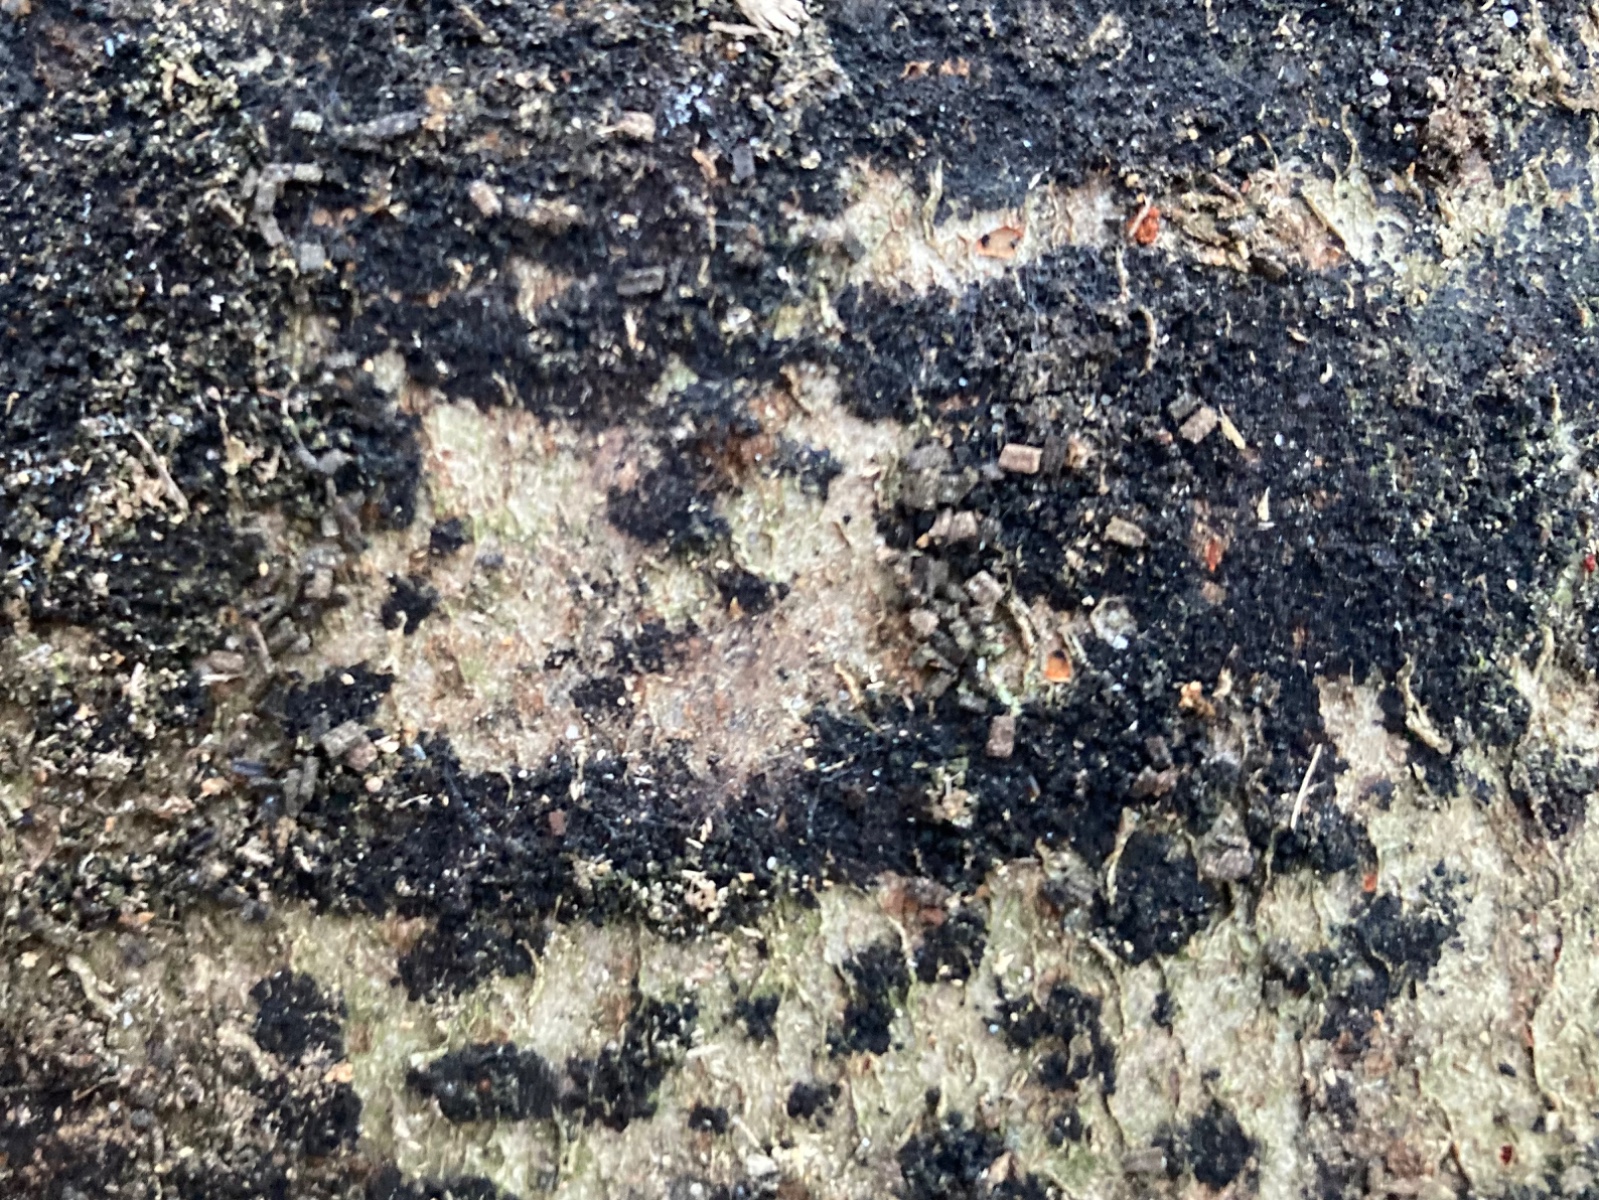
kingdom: Fungi
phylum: Ascomycota
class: Leotiomycetes
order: Rhytismatales
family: Ascodichaenaceae
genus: Ascodichaena
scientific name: Ascodichaena rugosa
